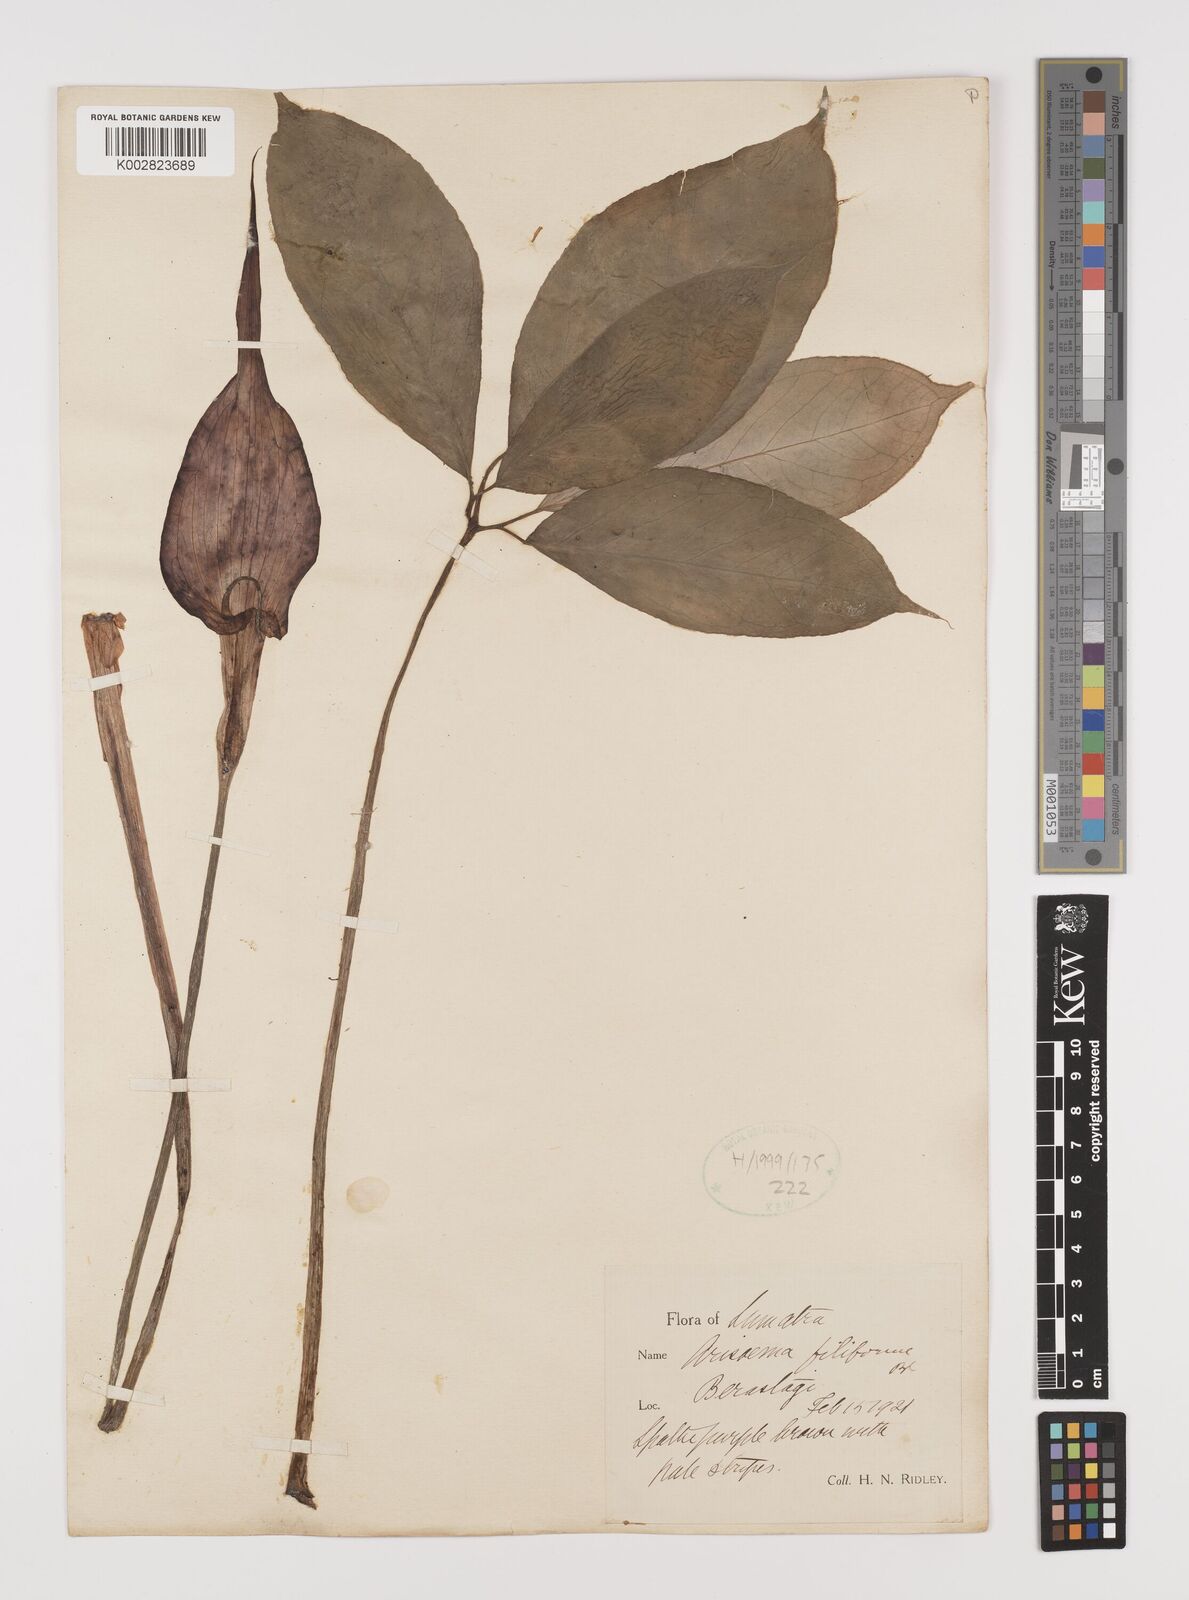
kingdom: Plantae
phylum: Tracheophyta
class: Liliopsida
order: Alismatales
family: Araceae
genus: Arisaema
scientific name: Arisaema filiforme
